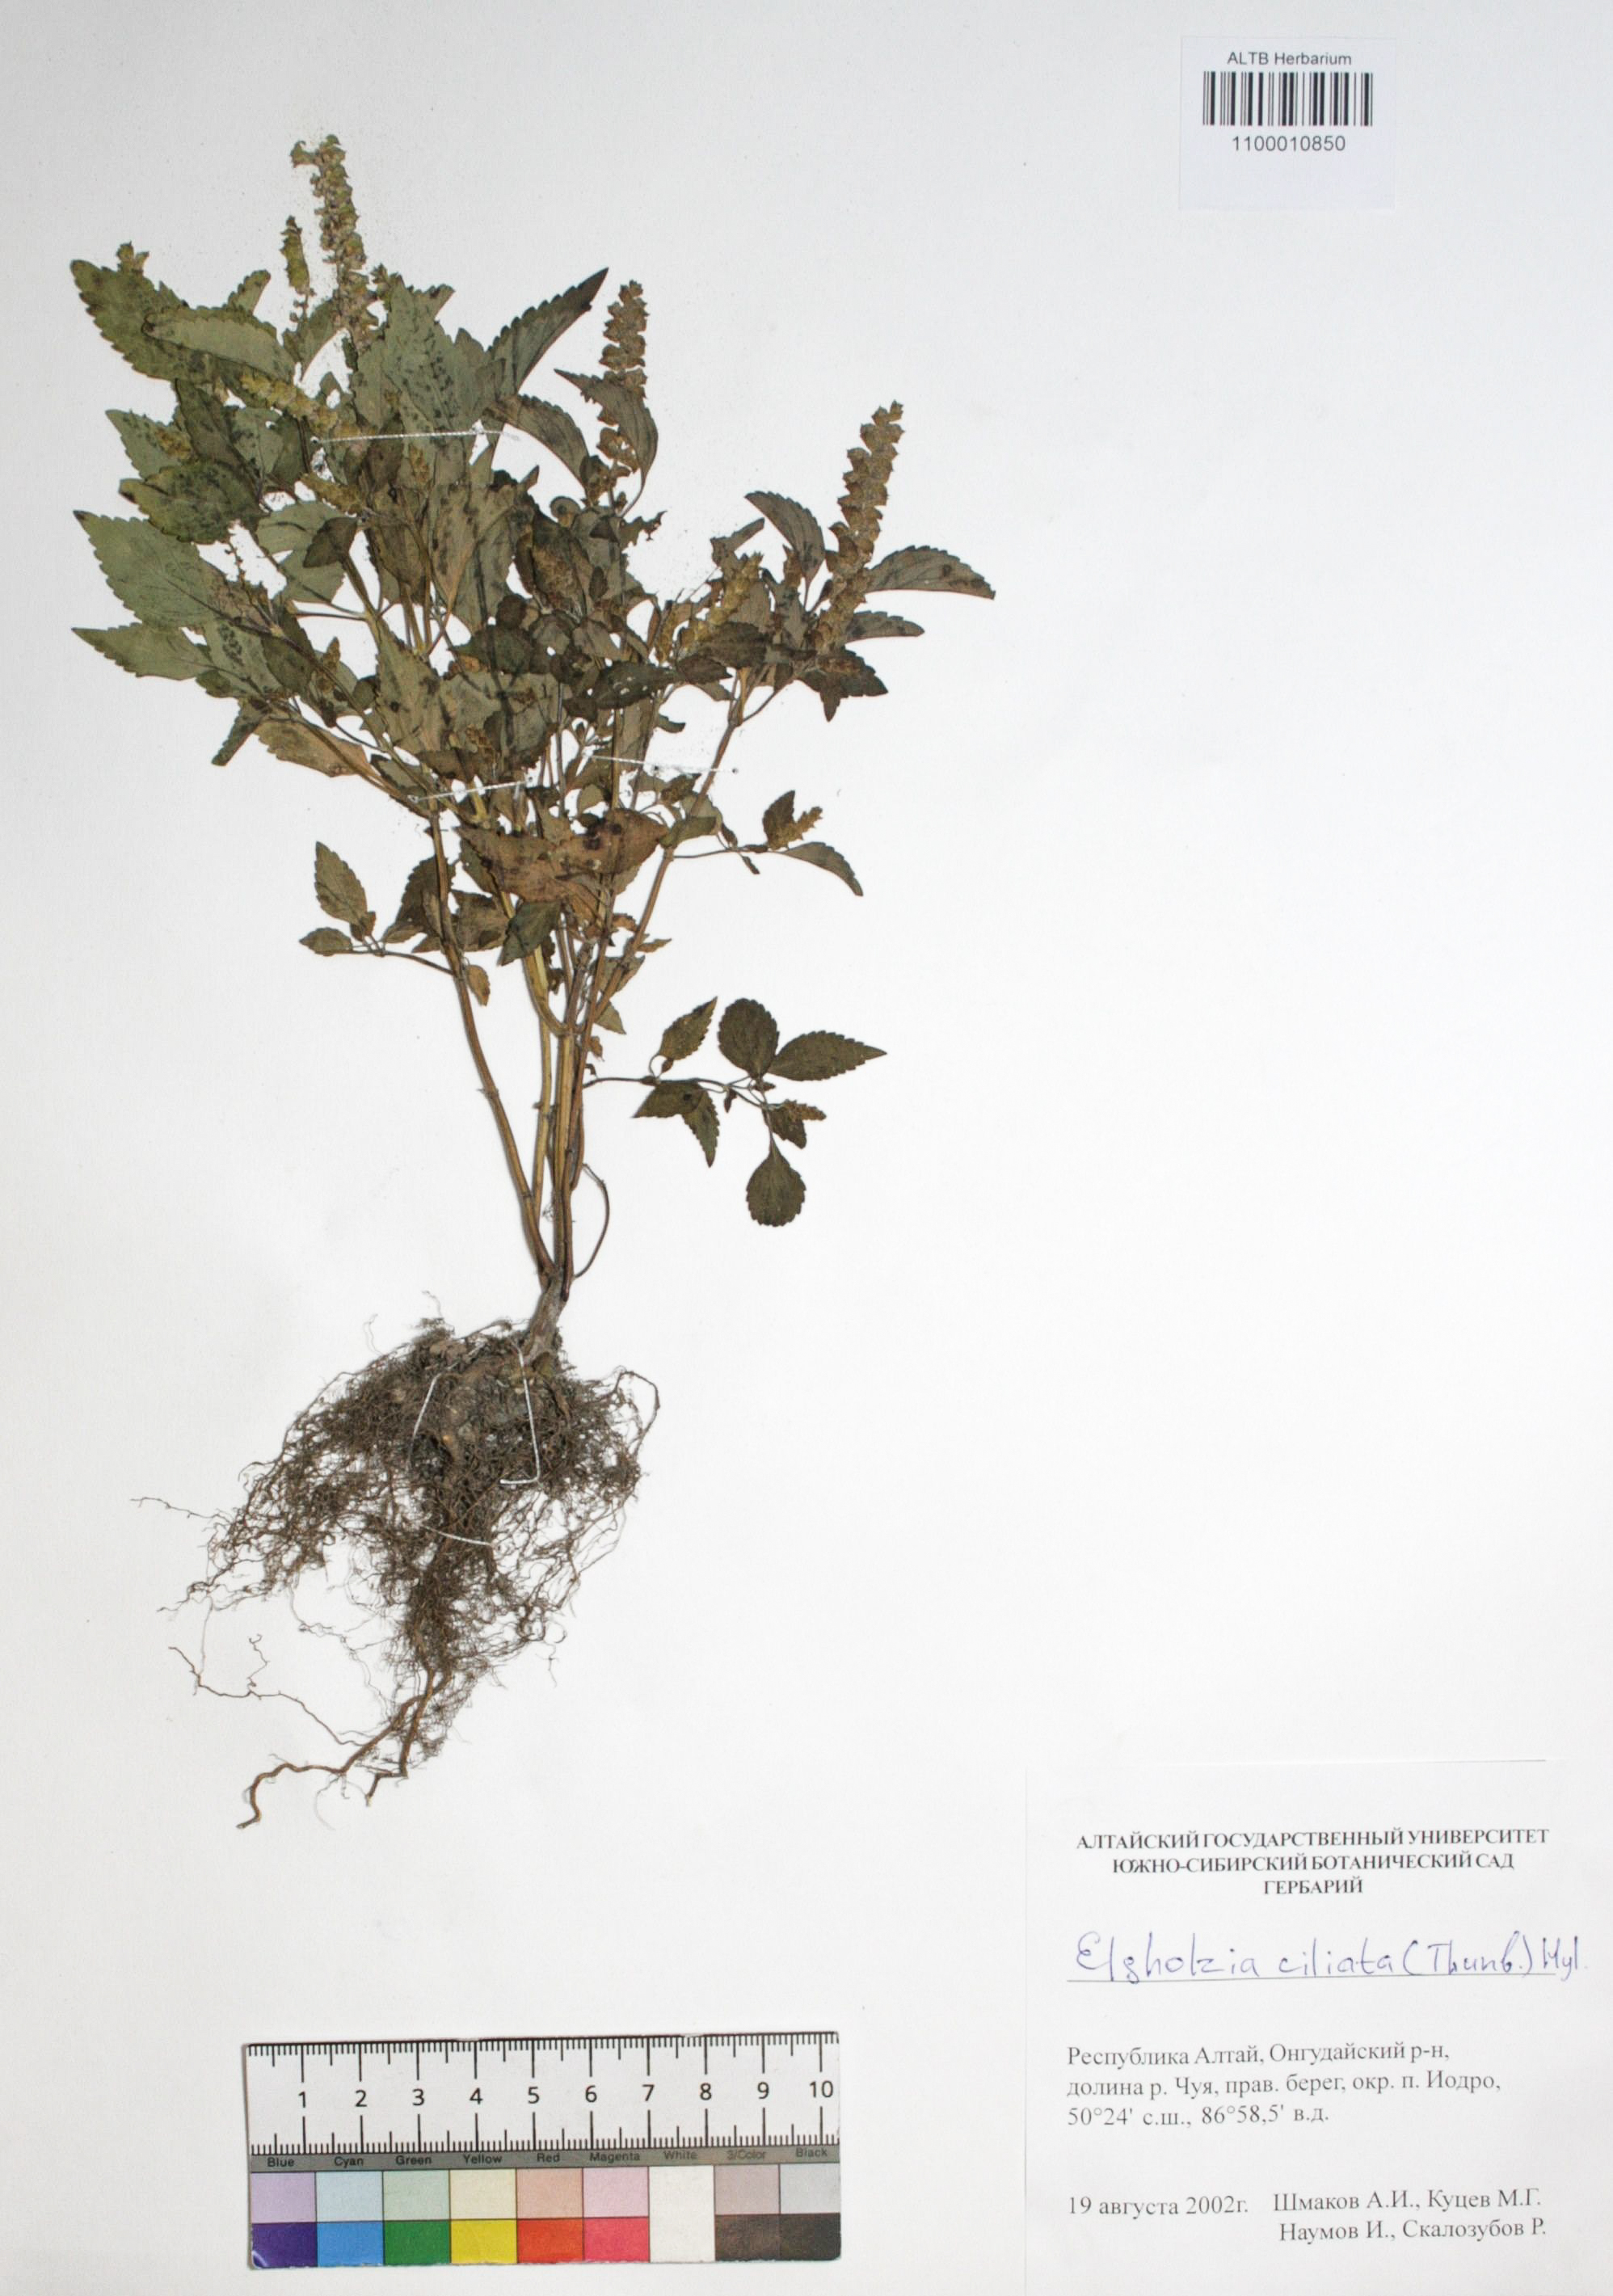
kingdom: Plantae
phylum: Tracheophyta
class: Magnoliopsida
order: Lamiales
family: Lamiaceae
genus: Elsholtzia
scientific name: Elsholtzia ciliata
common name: Ciliate elsholtzia
